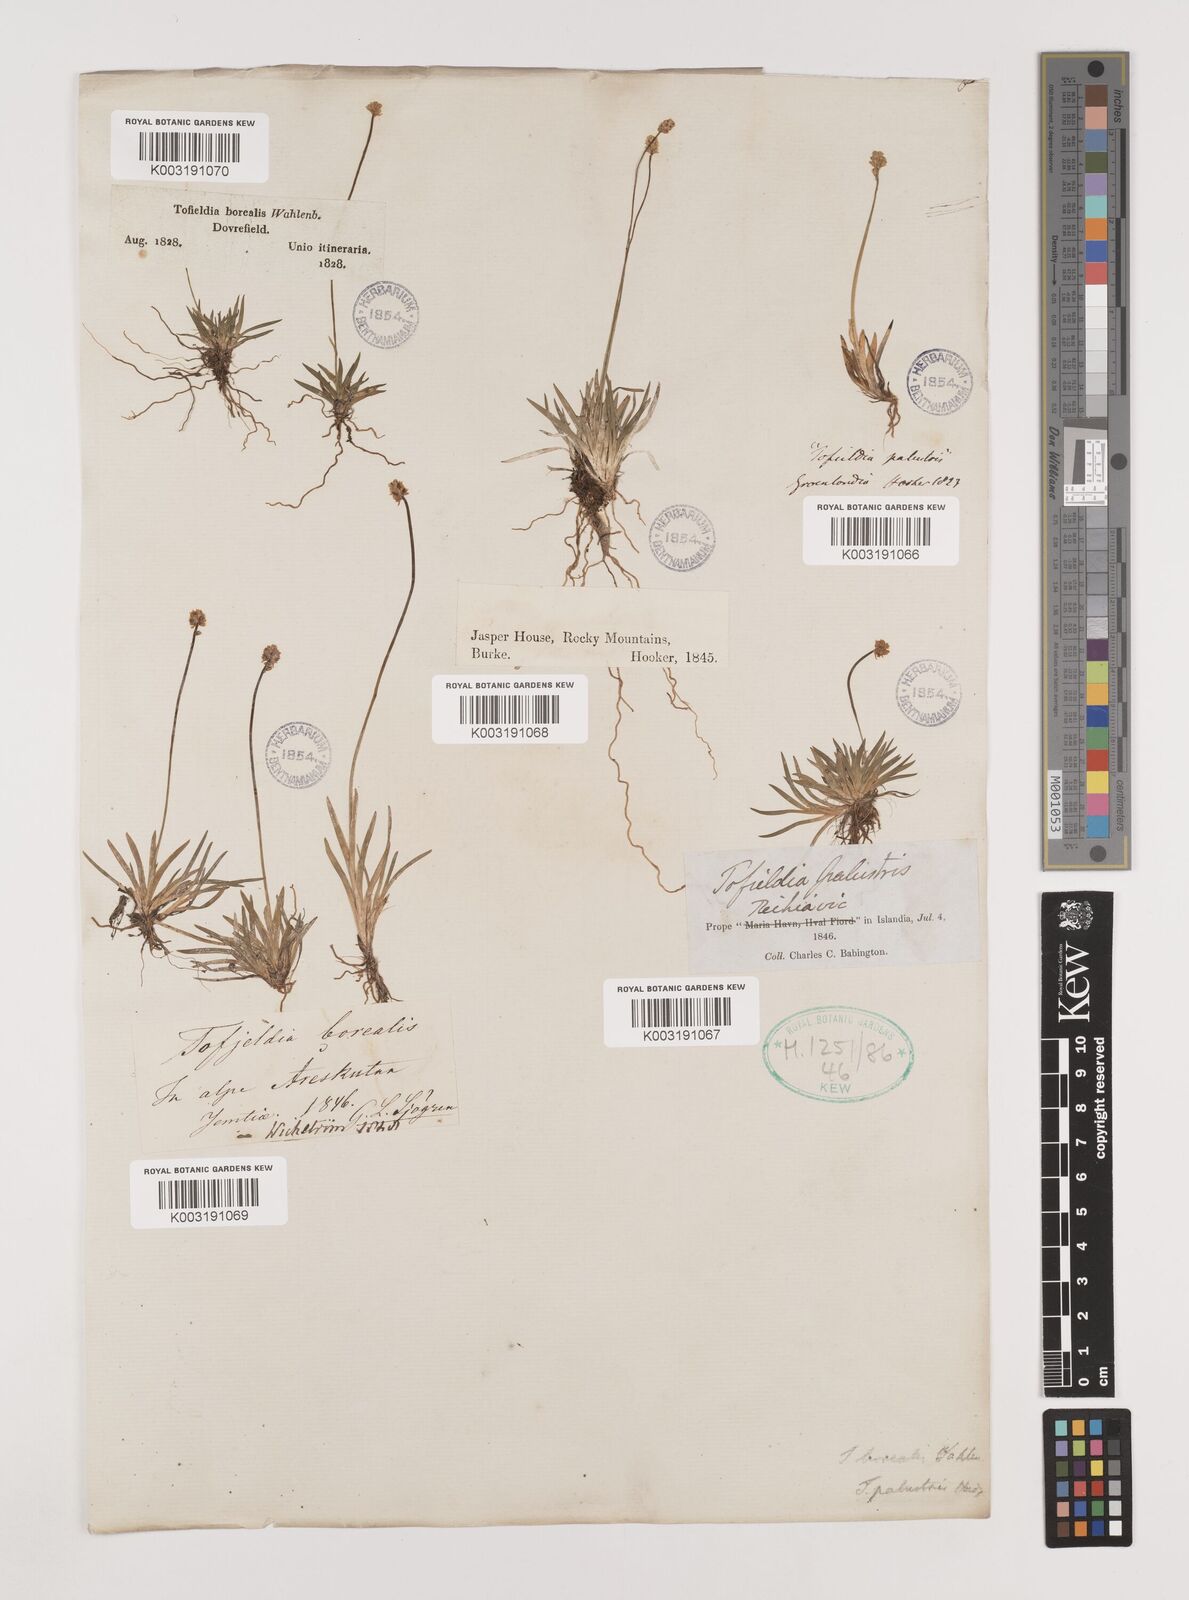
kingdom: Plantae
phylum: Tracheophyta
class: Liliopsida
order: Alismatales
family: Tofieldiaceae
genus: Tofieldia
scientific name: Tofieldia pusilla
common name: Scottish false asphodel
